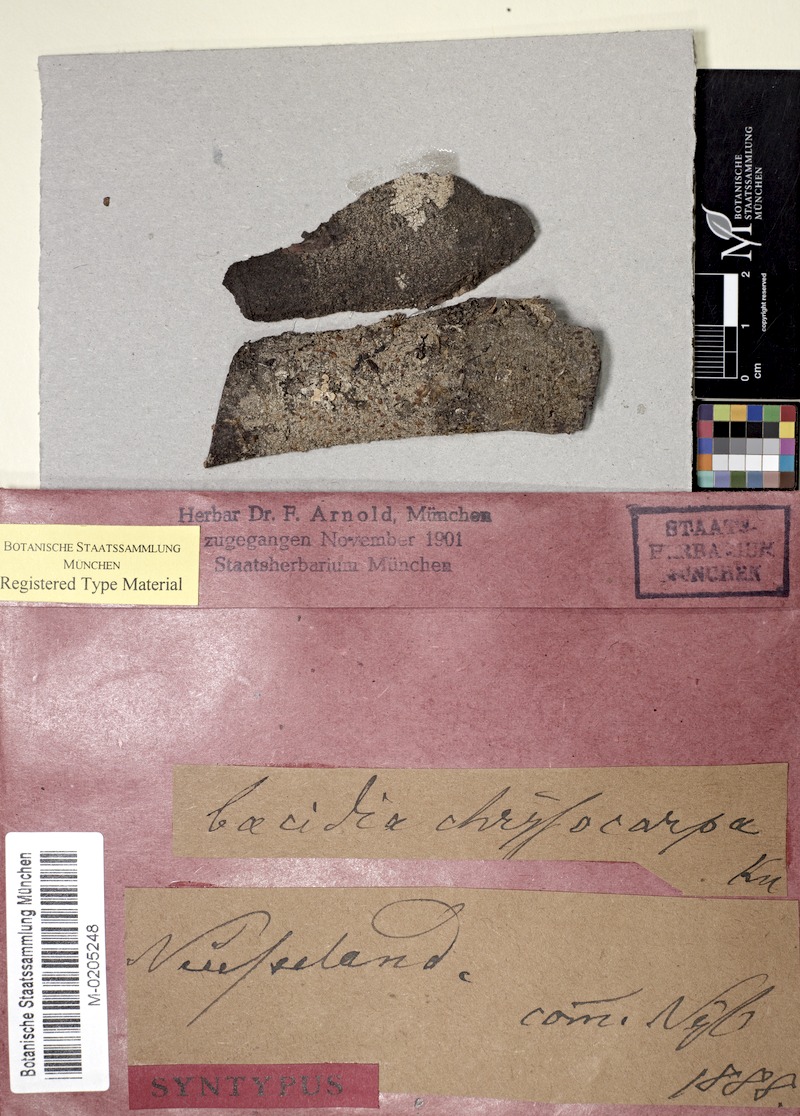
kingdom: Fungi
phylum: Ascomycota
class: Lecanoromycetes
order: Lecanorales
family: Ramalinaceae
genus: Bacidia
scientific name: Bacidia leucocarpa
